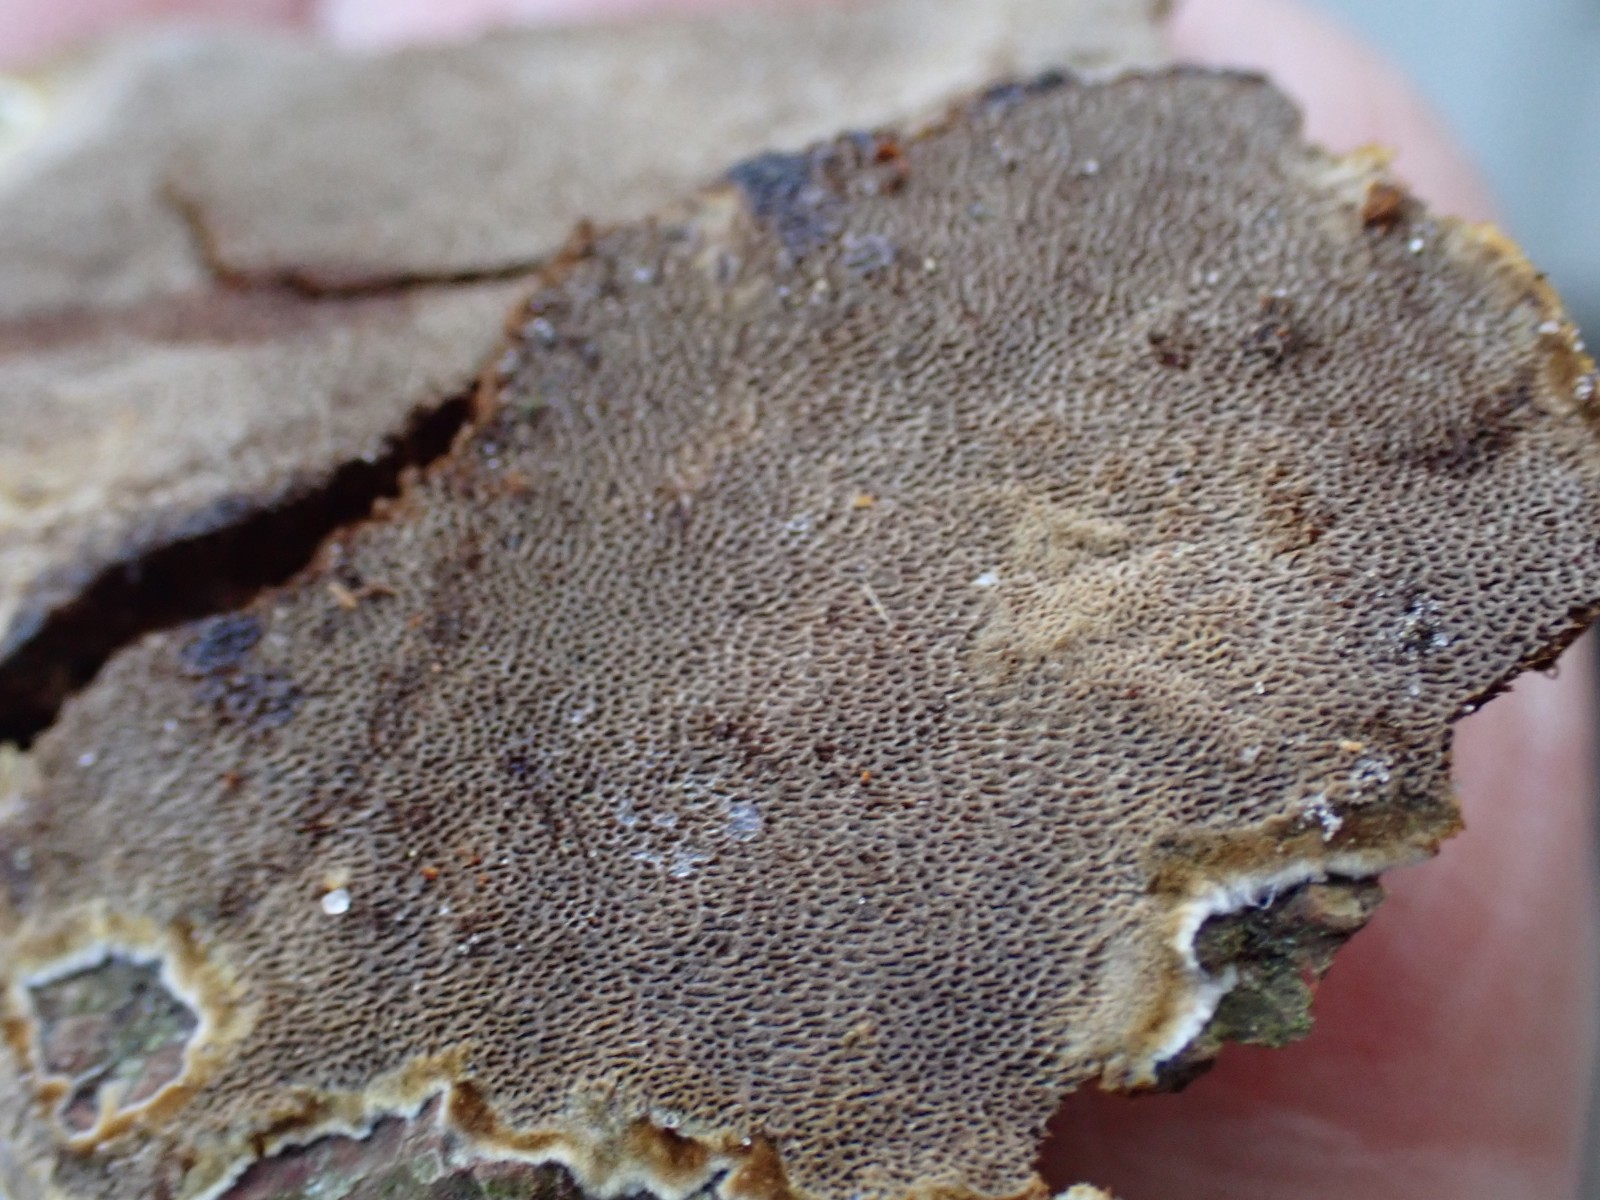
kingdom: Fungi
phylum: Basidiomycota
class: Agaricomycetes
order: Hymenochaetales
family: Hymenochaetaceae
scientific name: Hymenochaetaceae
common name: børstesvampfamilien
